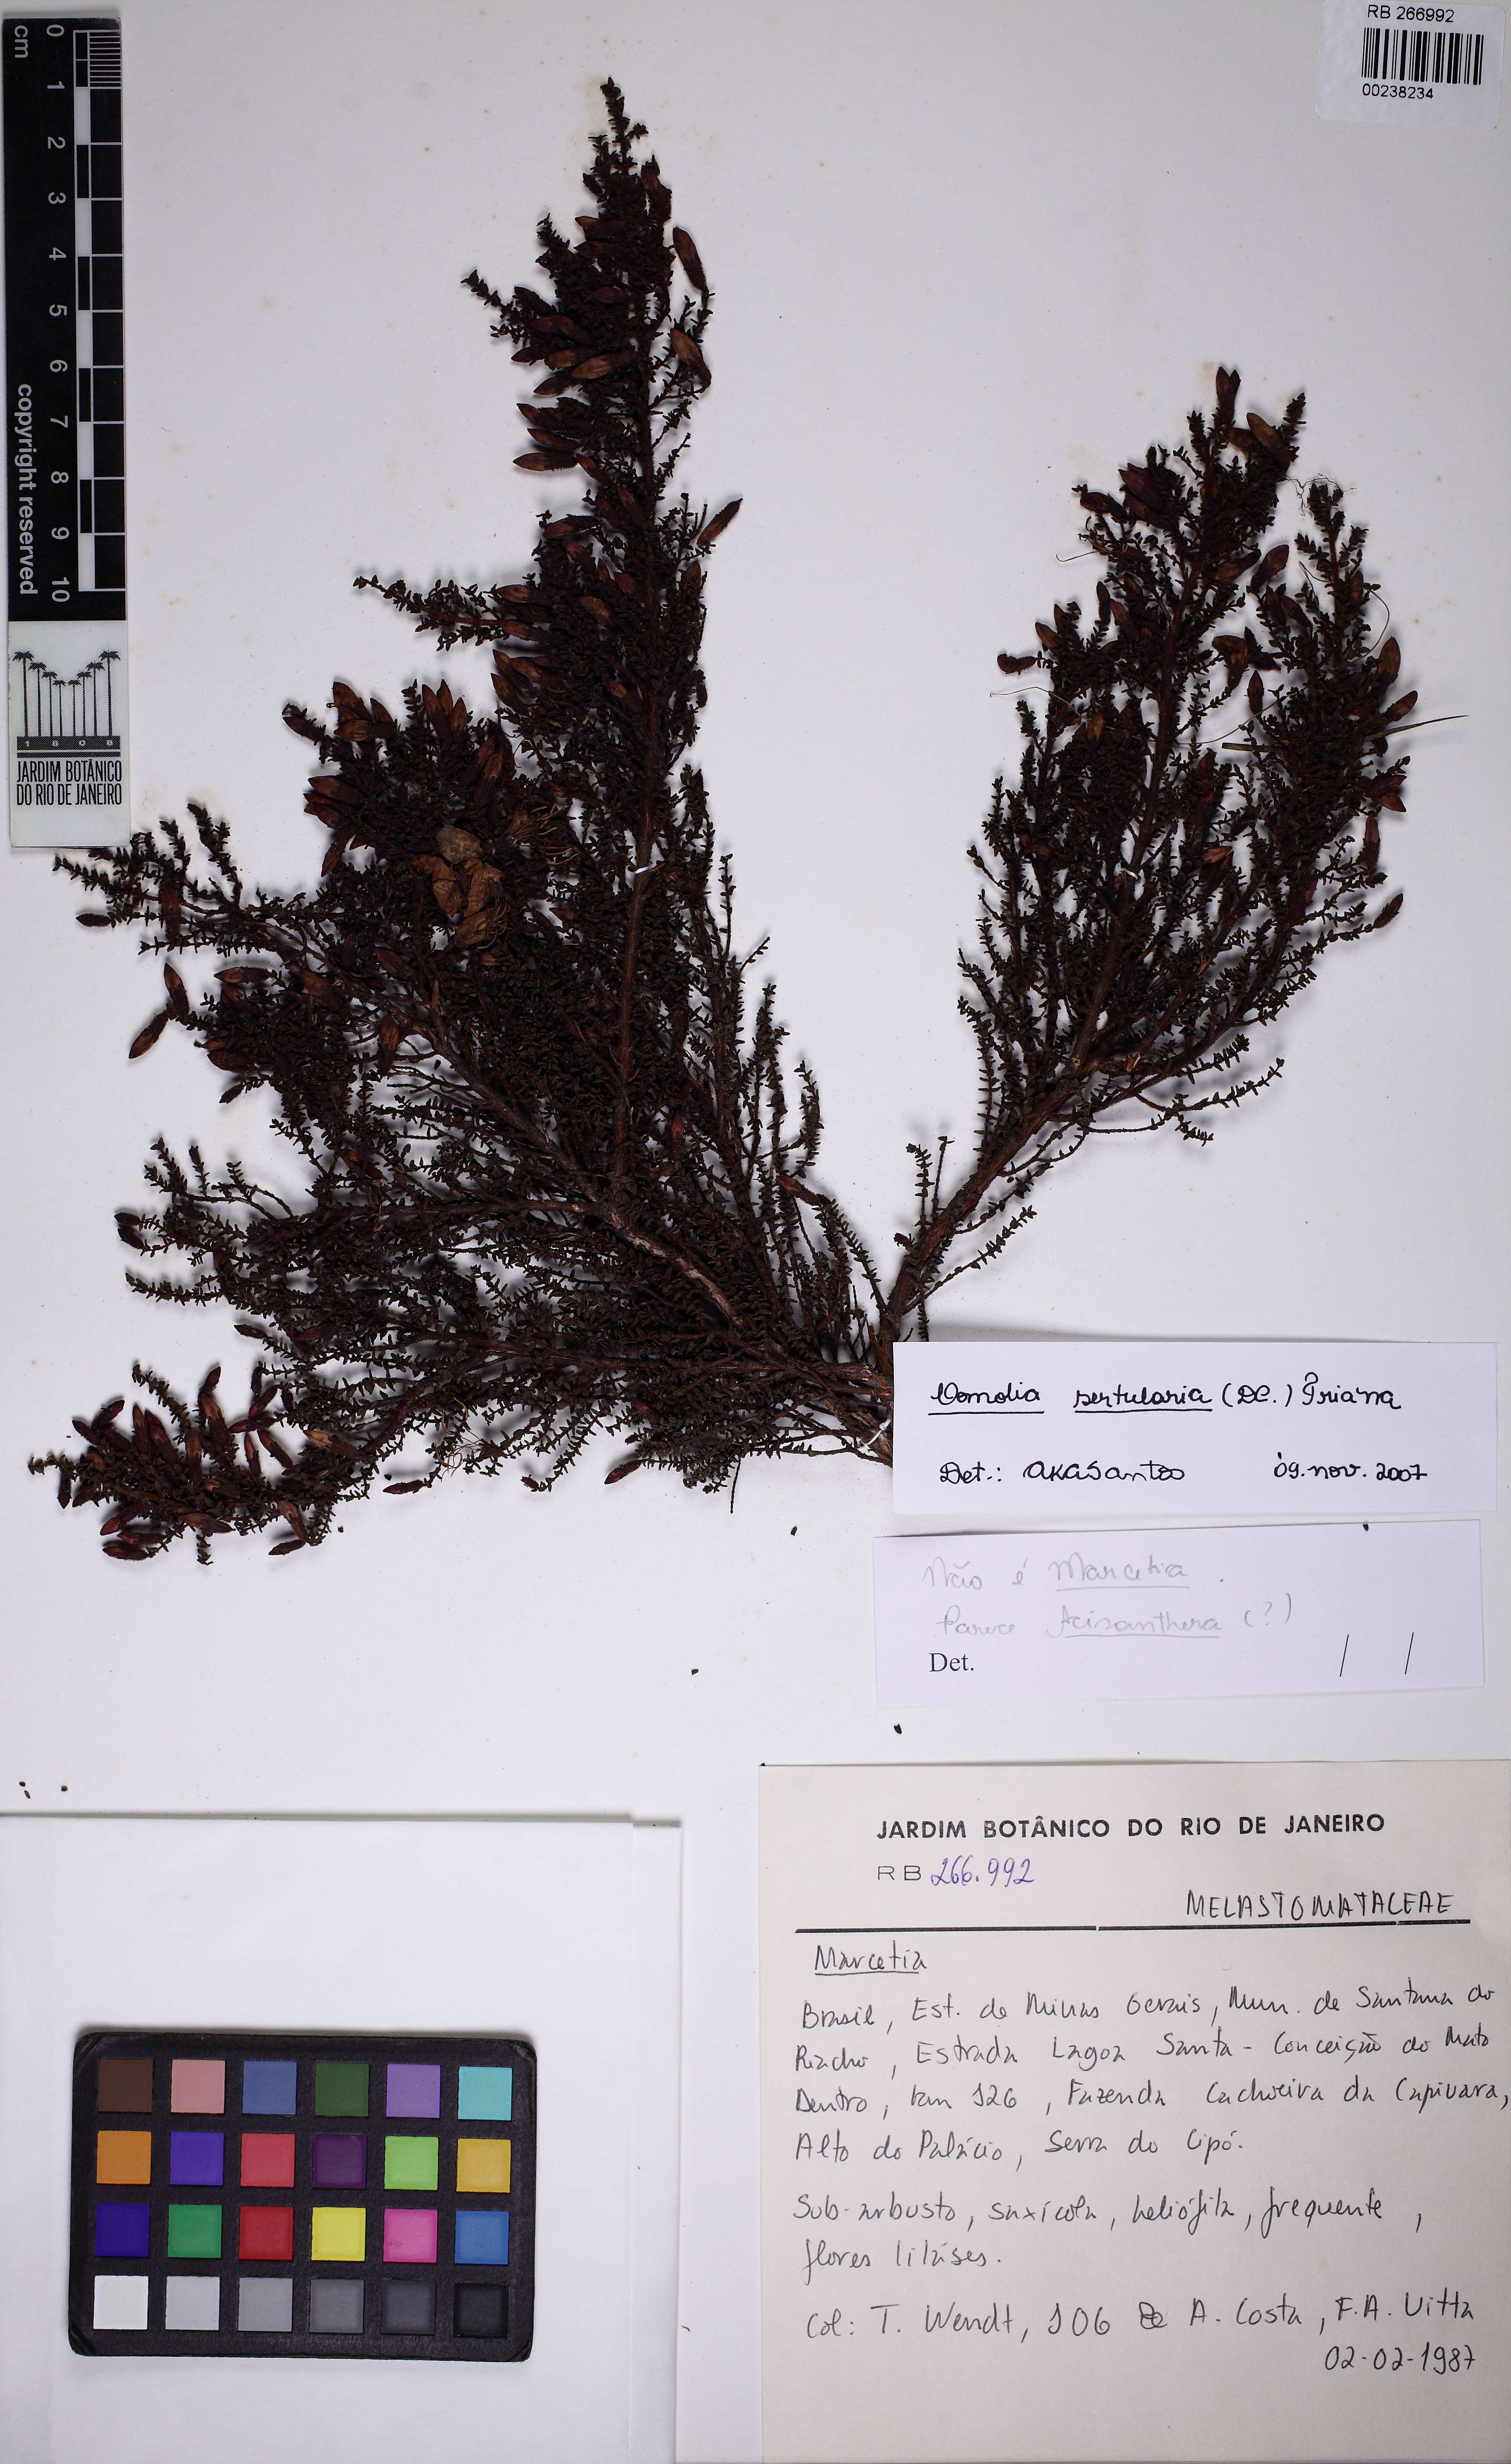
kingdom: Plantae
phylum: Tracheophyta
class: Magnoliopsida
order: Myrtales
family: Melastomataceae
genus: Fritzschia
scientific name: Fritzschia sertularia
